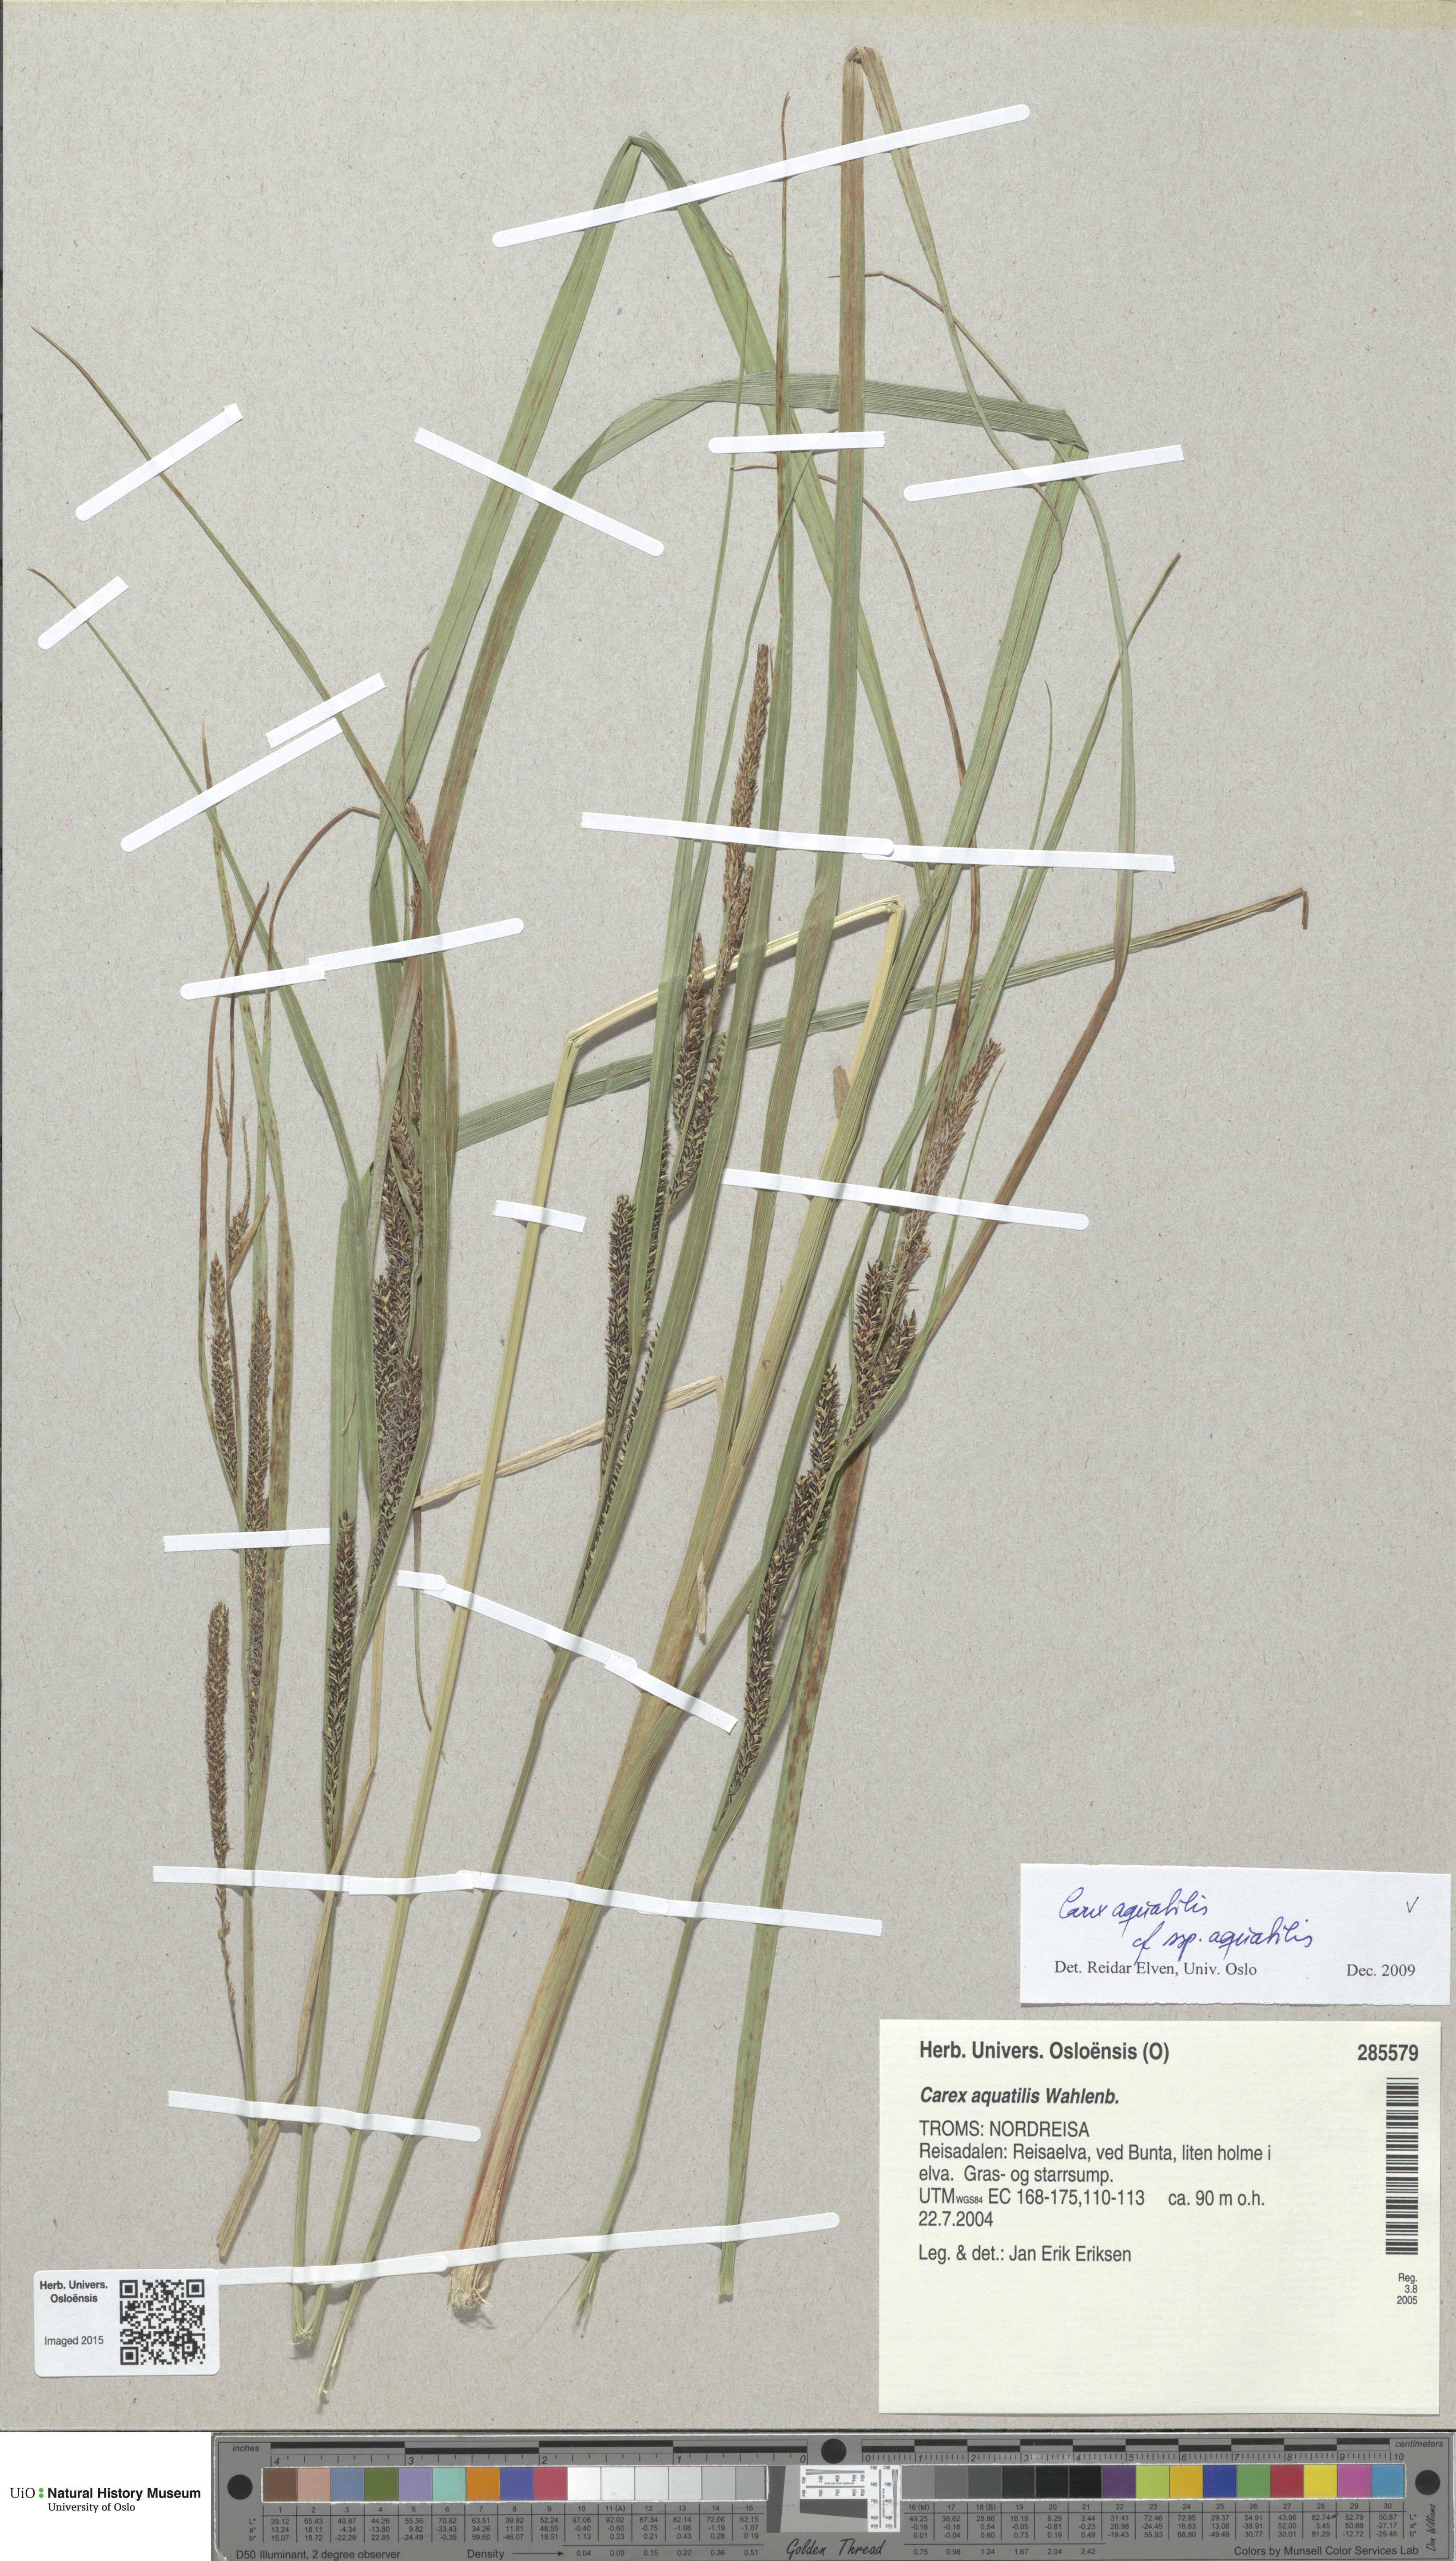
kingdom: Plantae
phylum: Tracheophyta
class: Liliopsida
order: Poales
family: Cyperaceae
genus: Carex
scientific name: Carex aquatilis
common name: Water sedge
